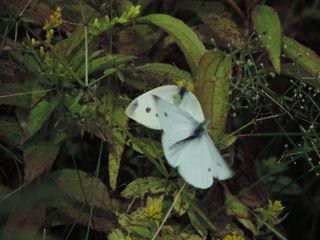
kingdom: Animalia
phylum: Arthropoda
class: Insecta
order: Lepidoptera
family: Pieridae
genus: Pieris
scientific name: Pieris rapae
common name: Cabbage White
